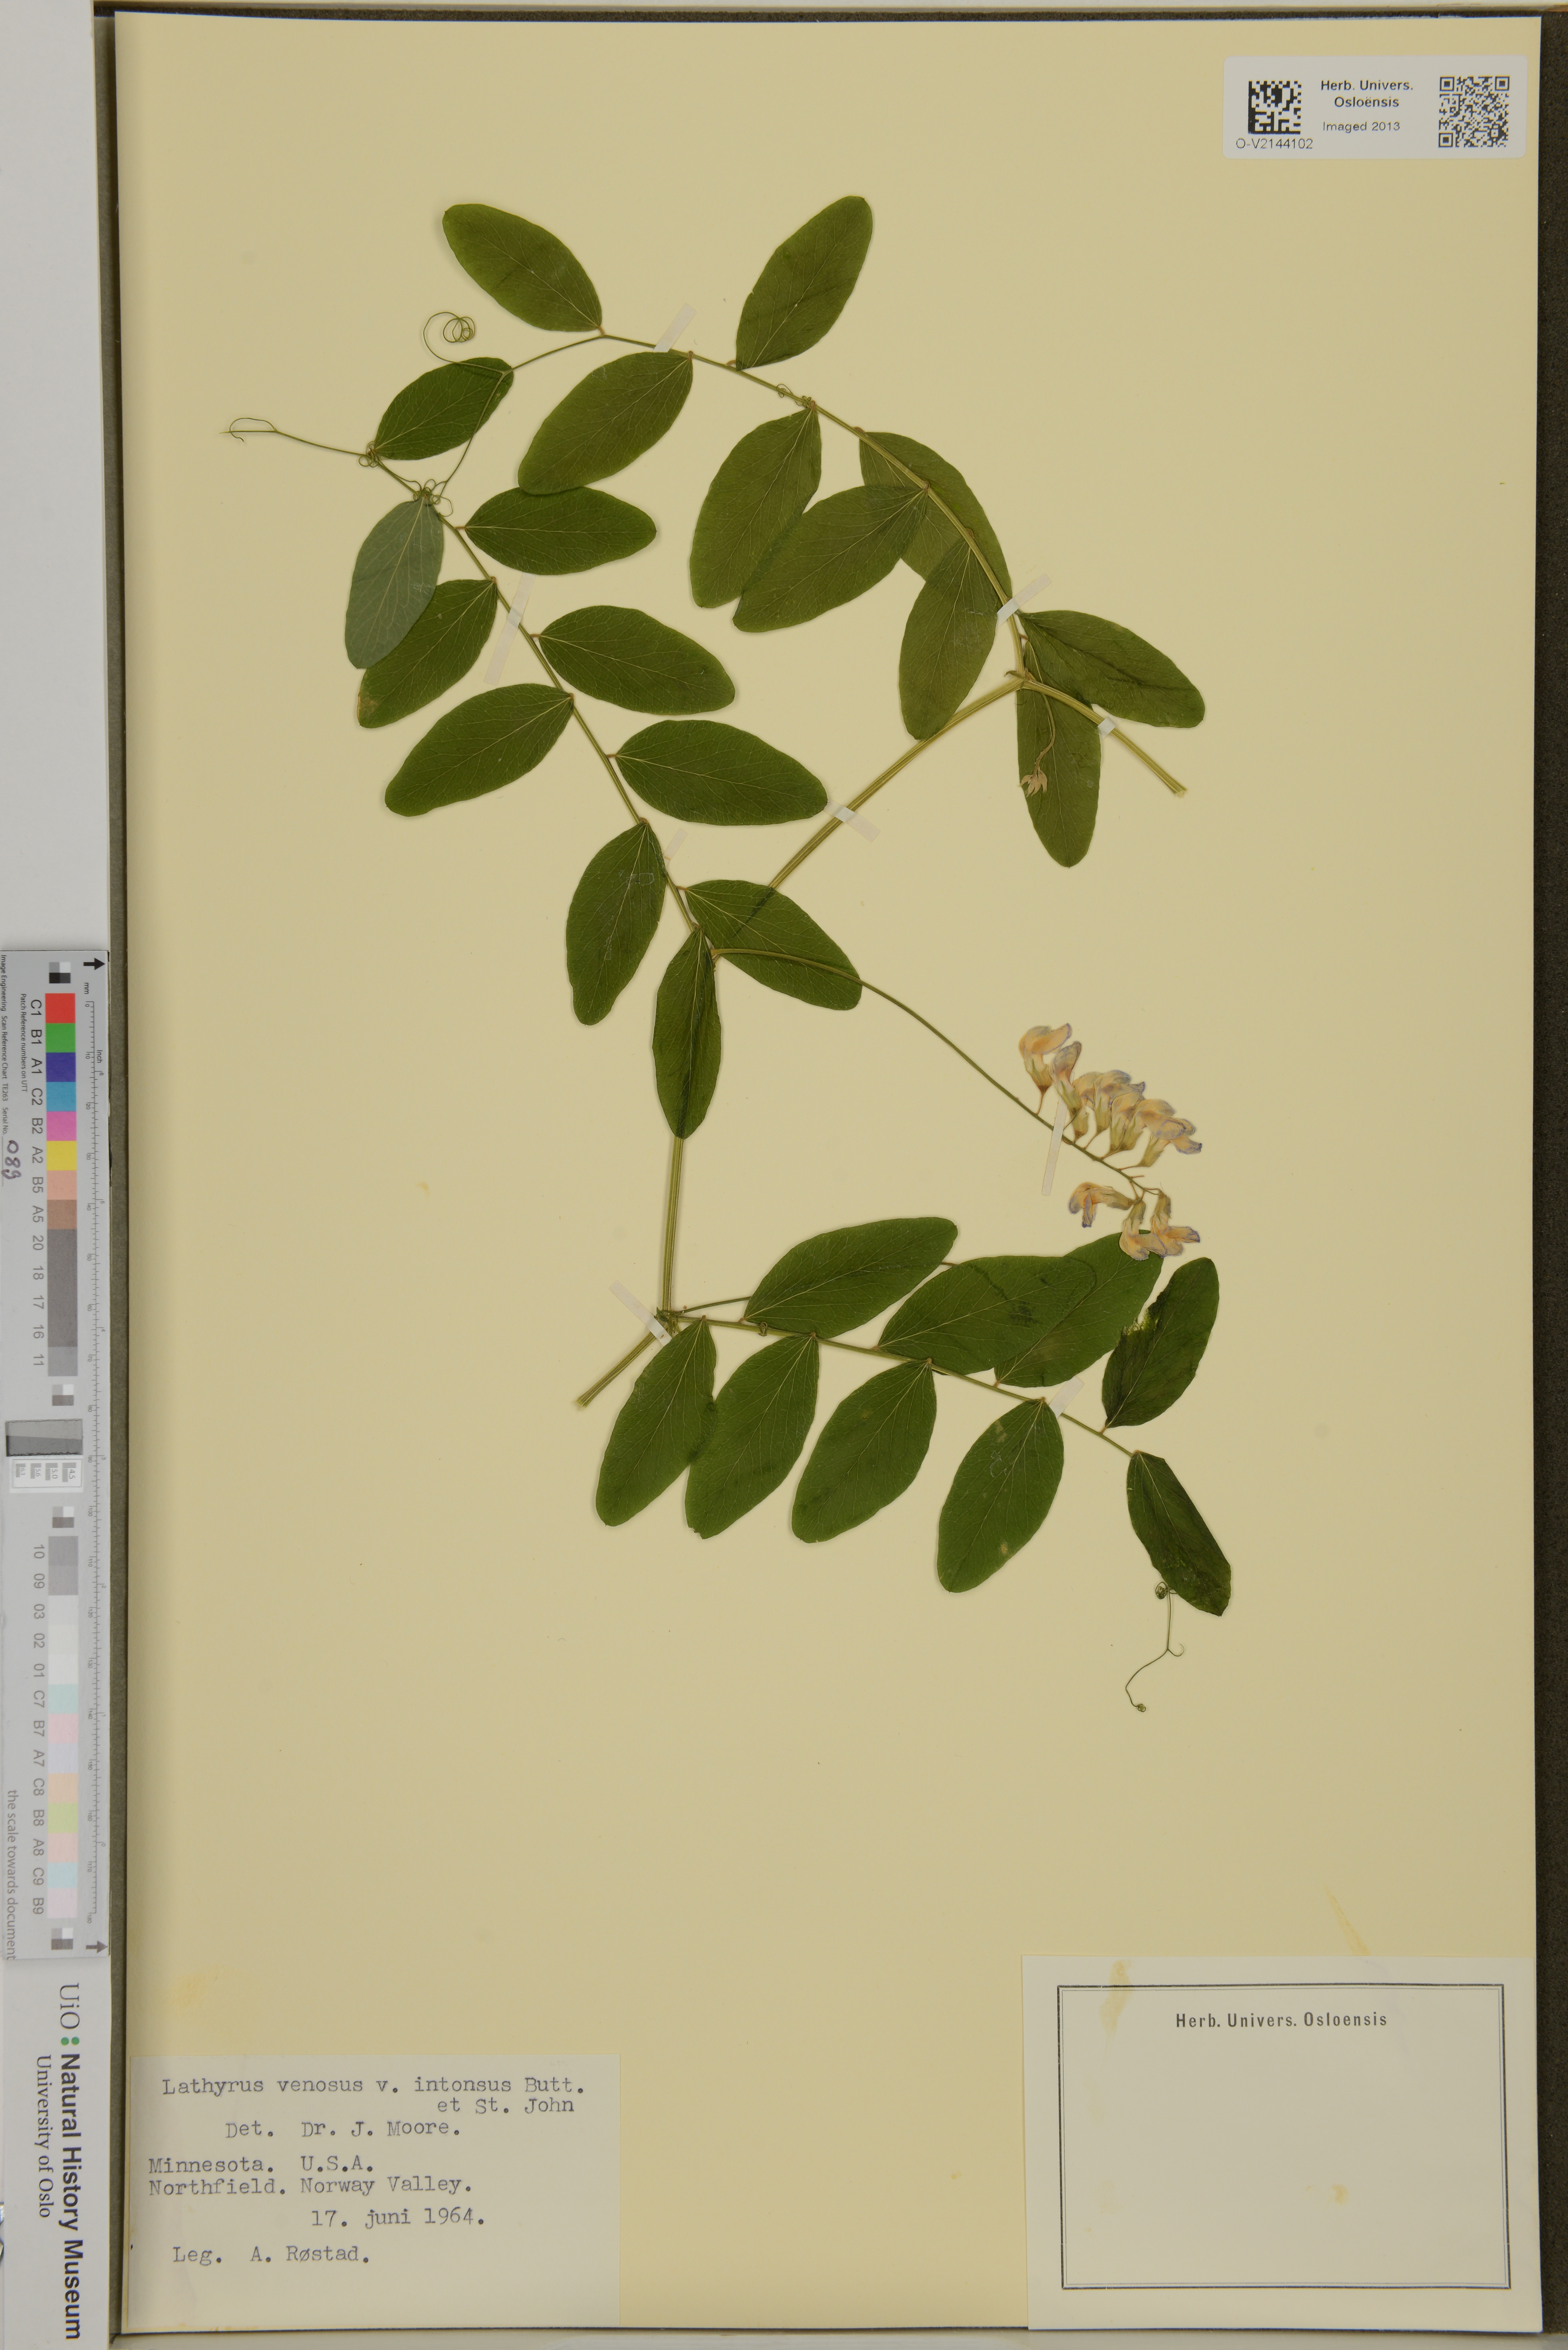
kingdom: Plantae
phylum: Tracheophyta
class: Magnoliopsida
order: Fabales
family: Fabaceae
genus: Lathyrus
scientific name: Lathyrus venosus
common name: Forest-pea
